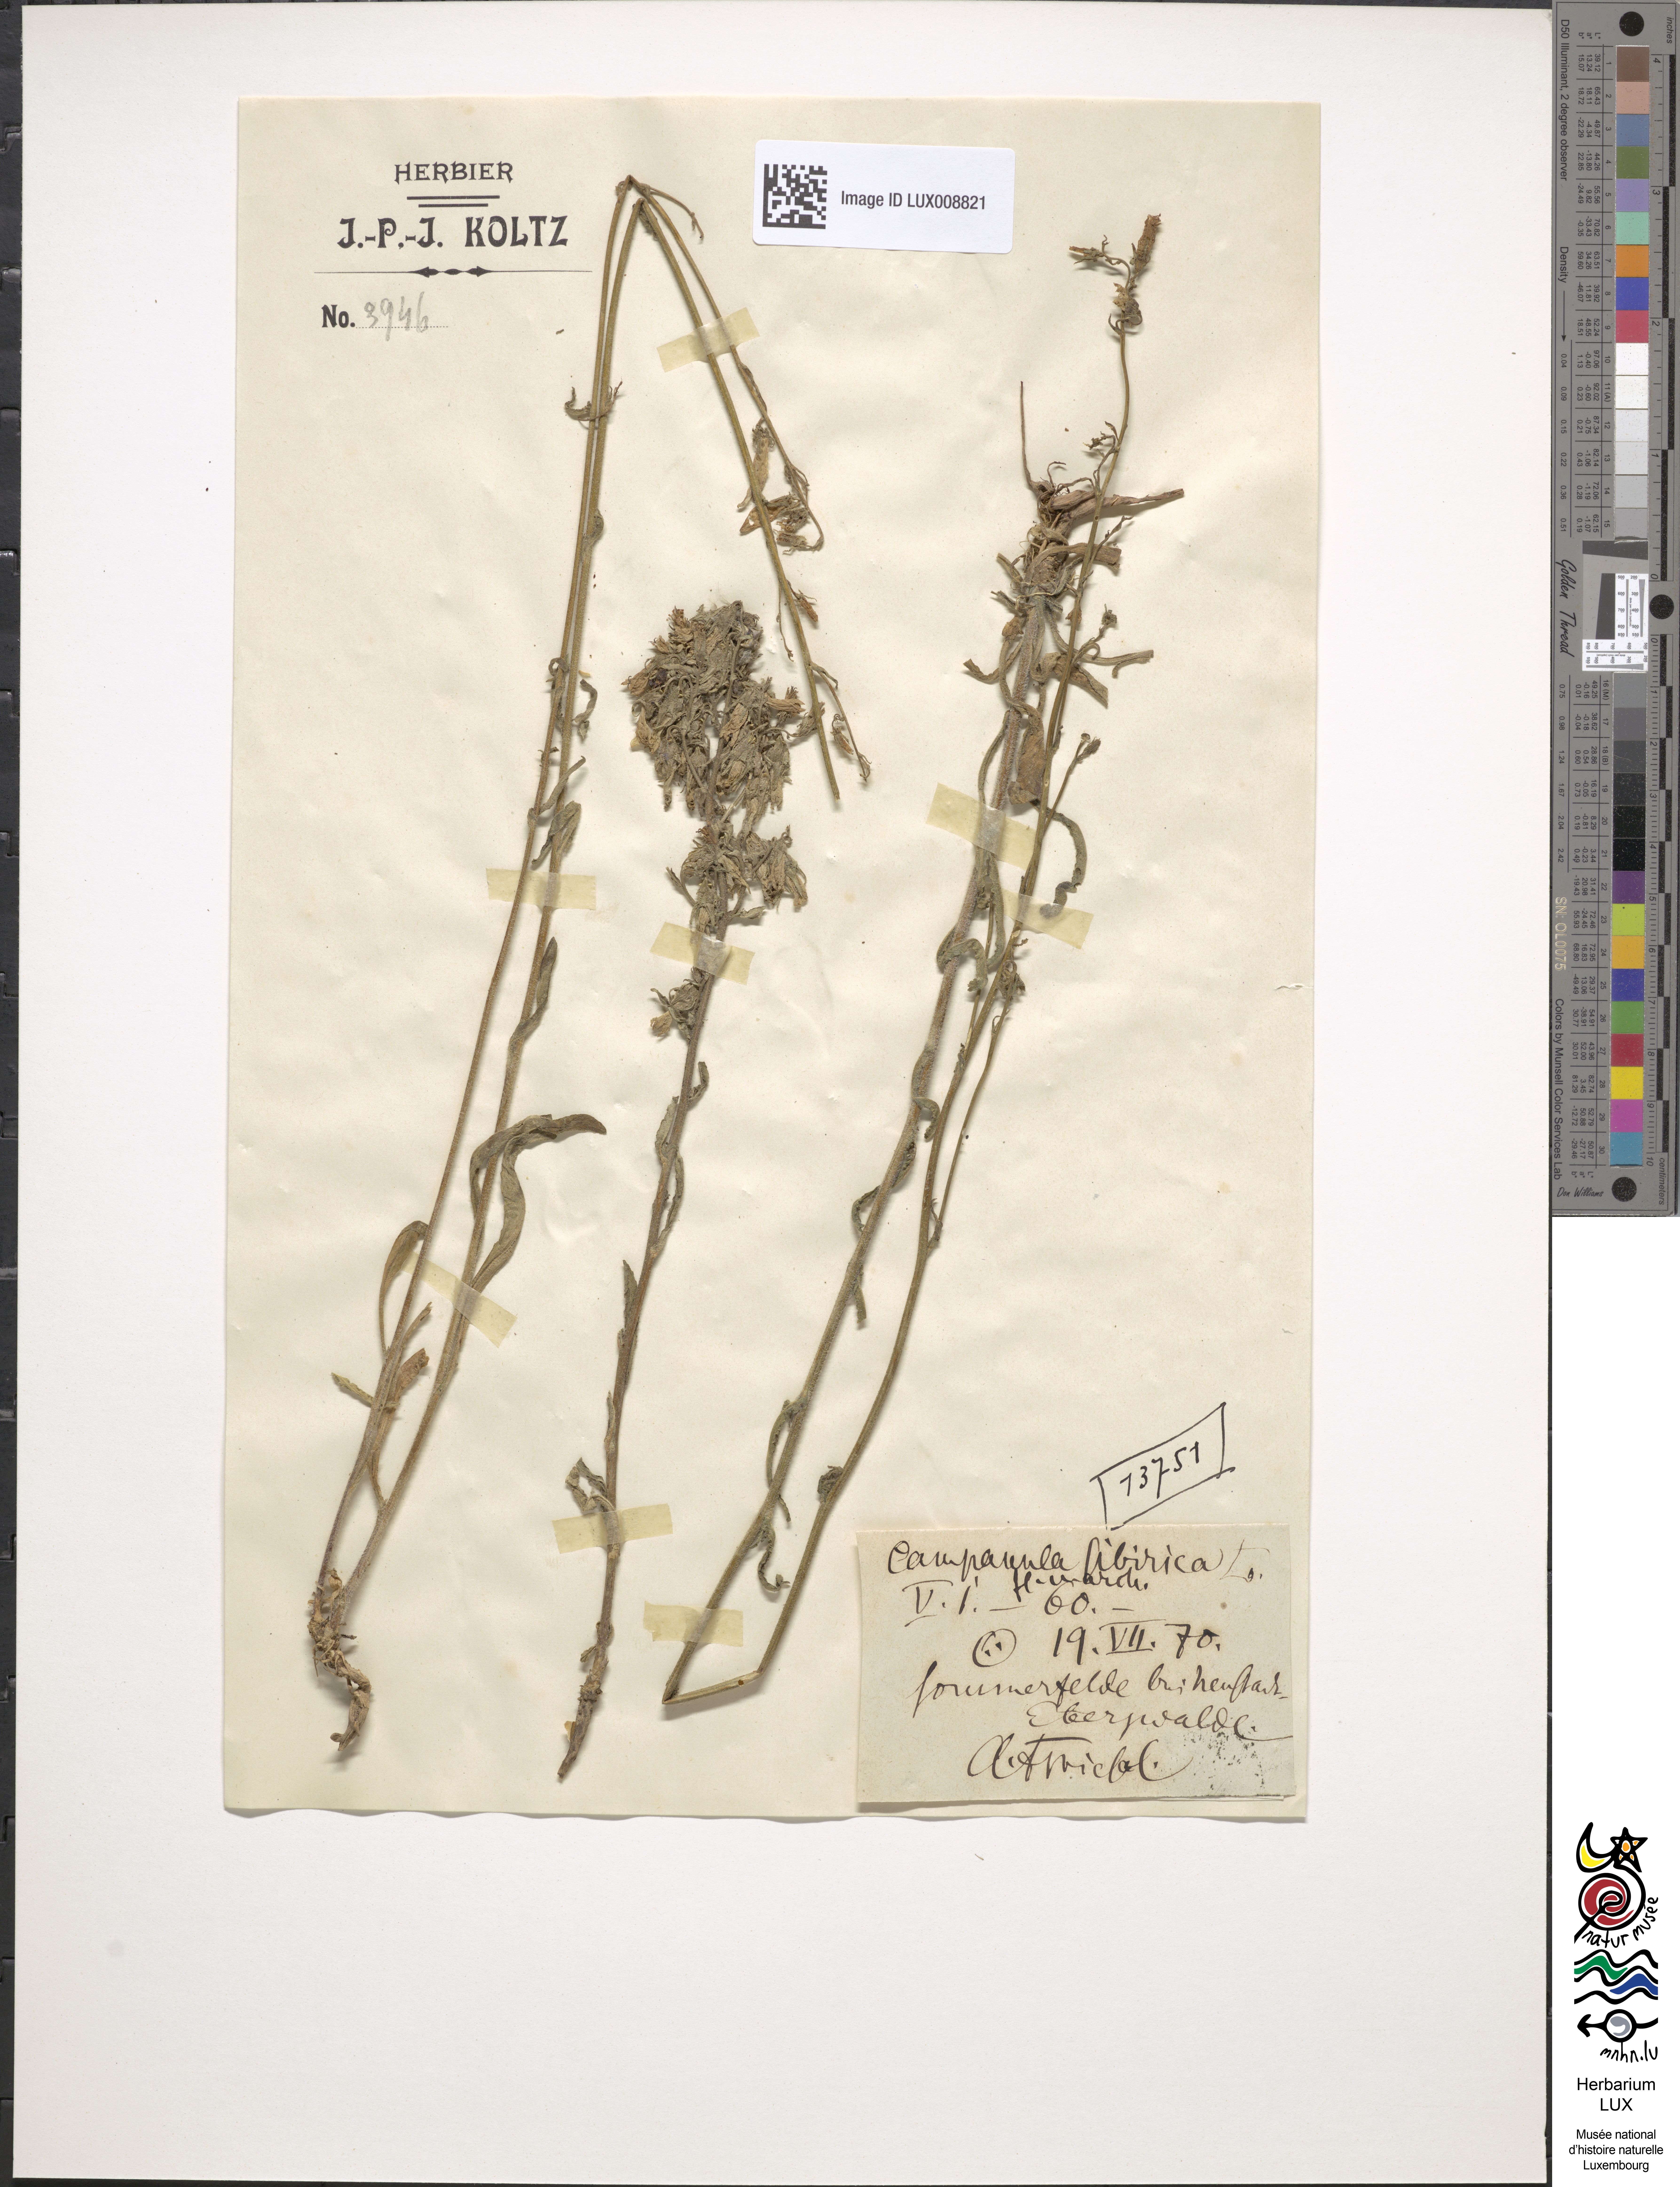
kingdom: Plantae
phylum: Tracheophyta
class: Magnoliopsida
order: Asterales
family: Campanulaceae
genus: Campanula
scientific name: Campanula sibirica
